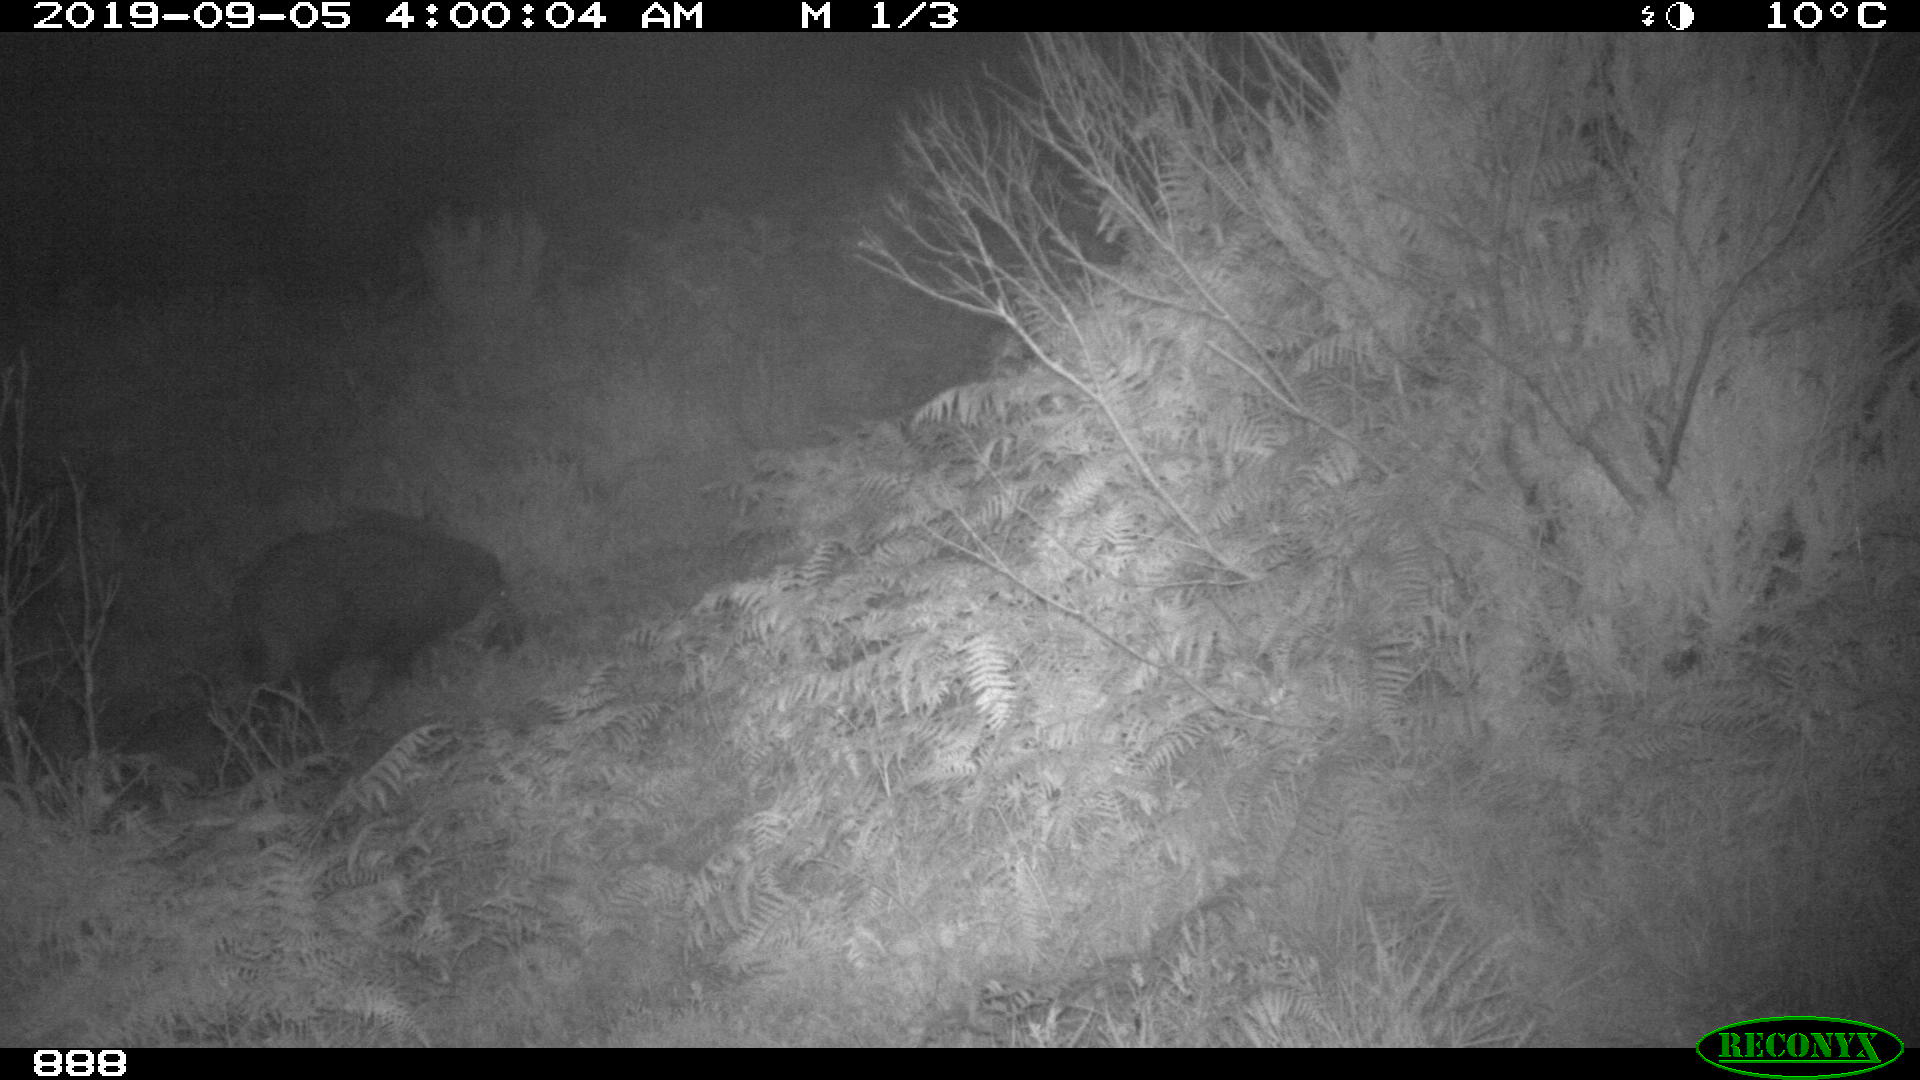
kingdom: Animalia
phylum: Chordata
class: Mammalia
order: Artiodactyla
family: Suidae
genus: Sus
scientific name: Sus scrofa
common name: Wild boar
